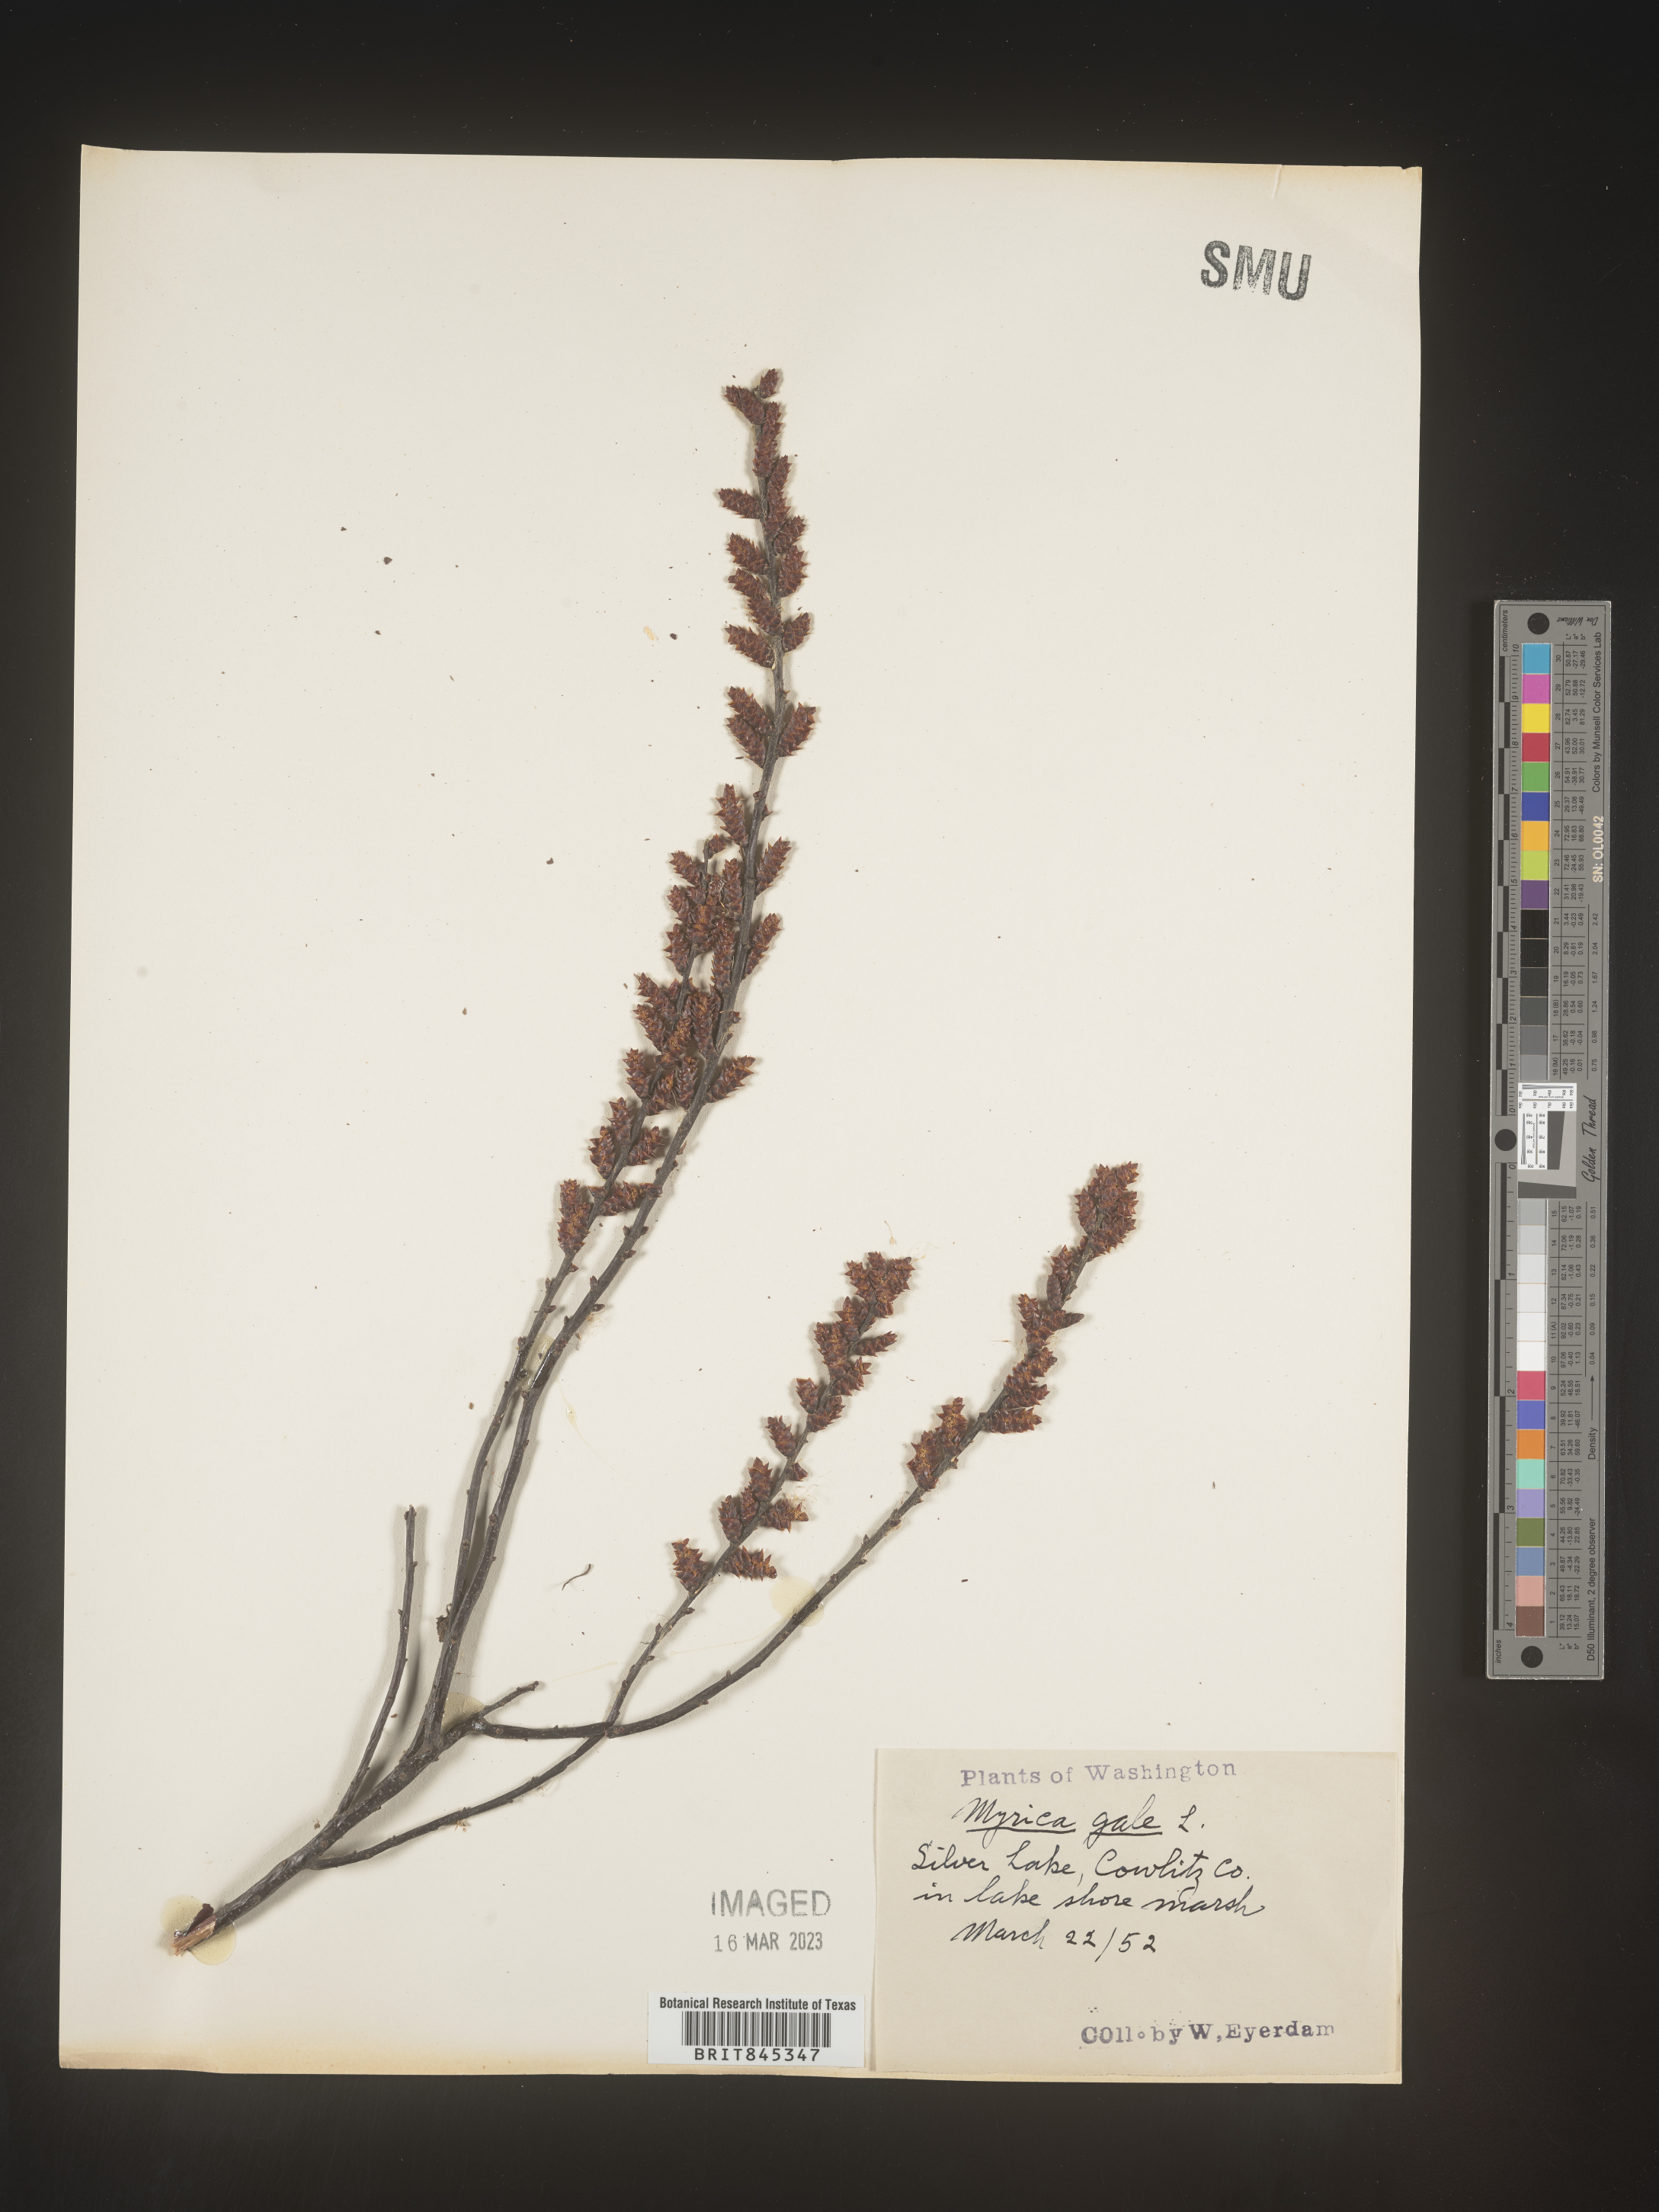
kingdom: Plantae
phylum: Tracheophyta
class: Magnoliopsida
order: Fagales
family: Myricaceae
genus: Myrica
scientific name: Myrica gale
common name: Sweet gale
